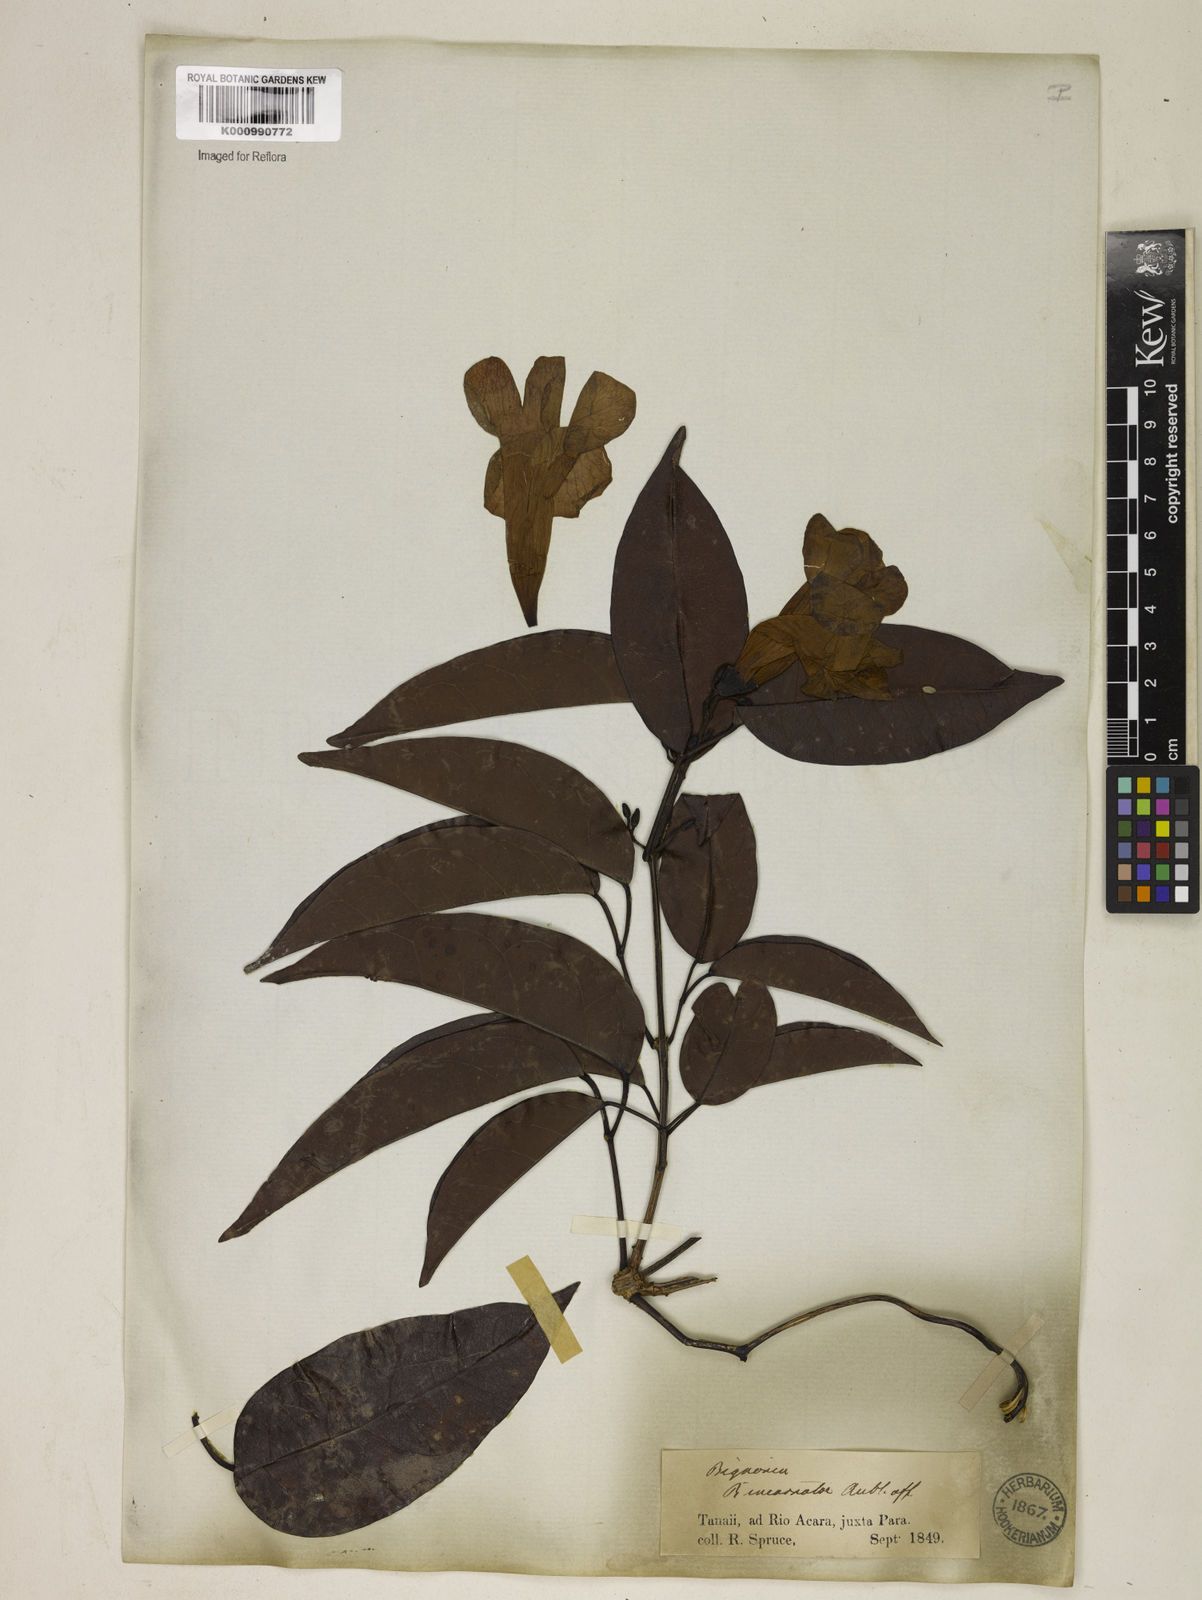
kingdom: Plantae
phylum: Tracheophyta
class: Magnoliopsida
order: Lamiales
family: Bignoniaceae
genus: Bignonia
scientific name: Bignonia aequinoctialis
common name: Garlicvine
